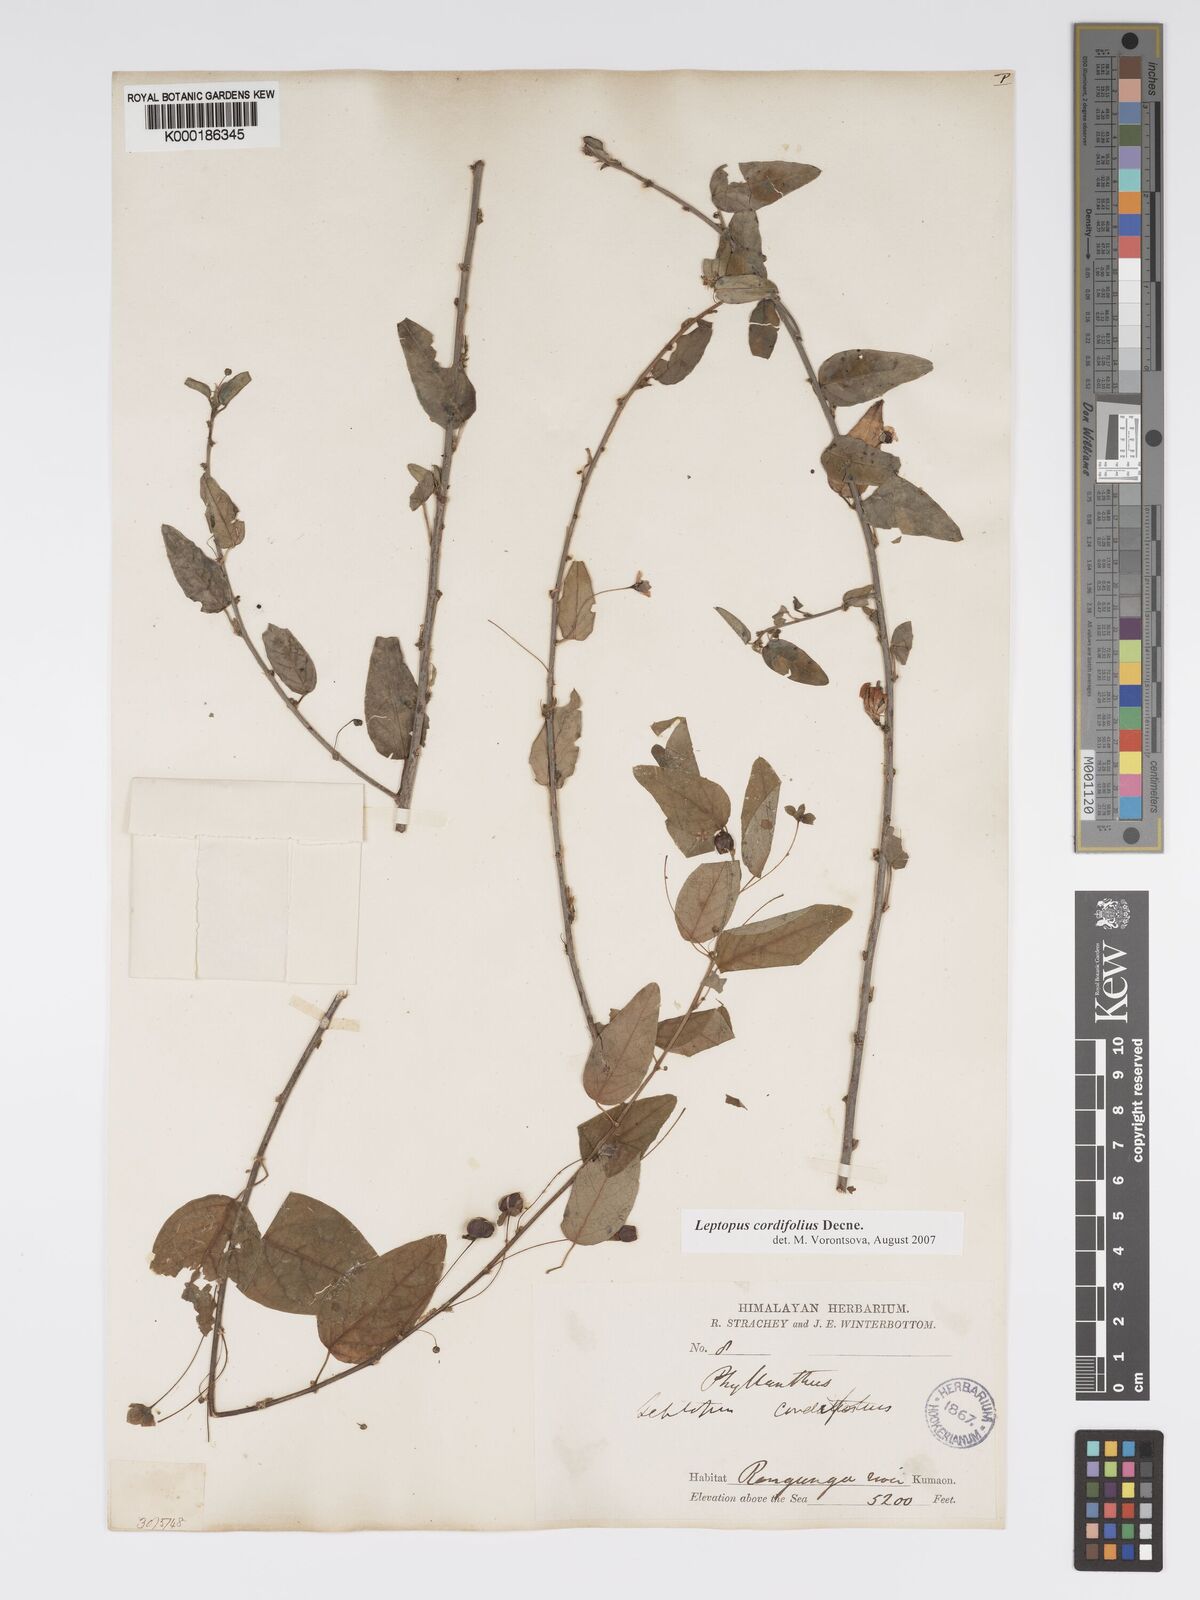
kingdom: Plantae
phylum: Tracheophyta
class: Magnoliopsida
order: Malpighiales
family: Phyllanthaceae
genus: Leptopus
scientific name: Leptopus cordifolius
